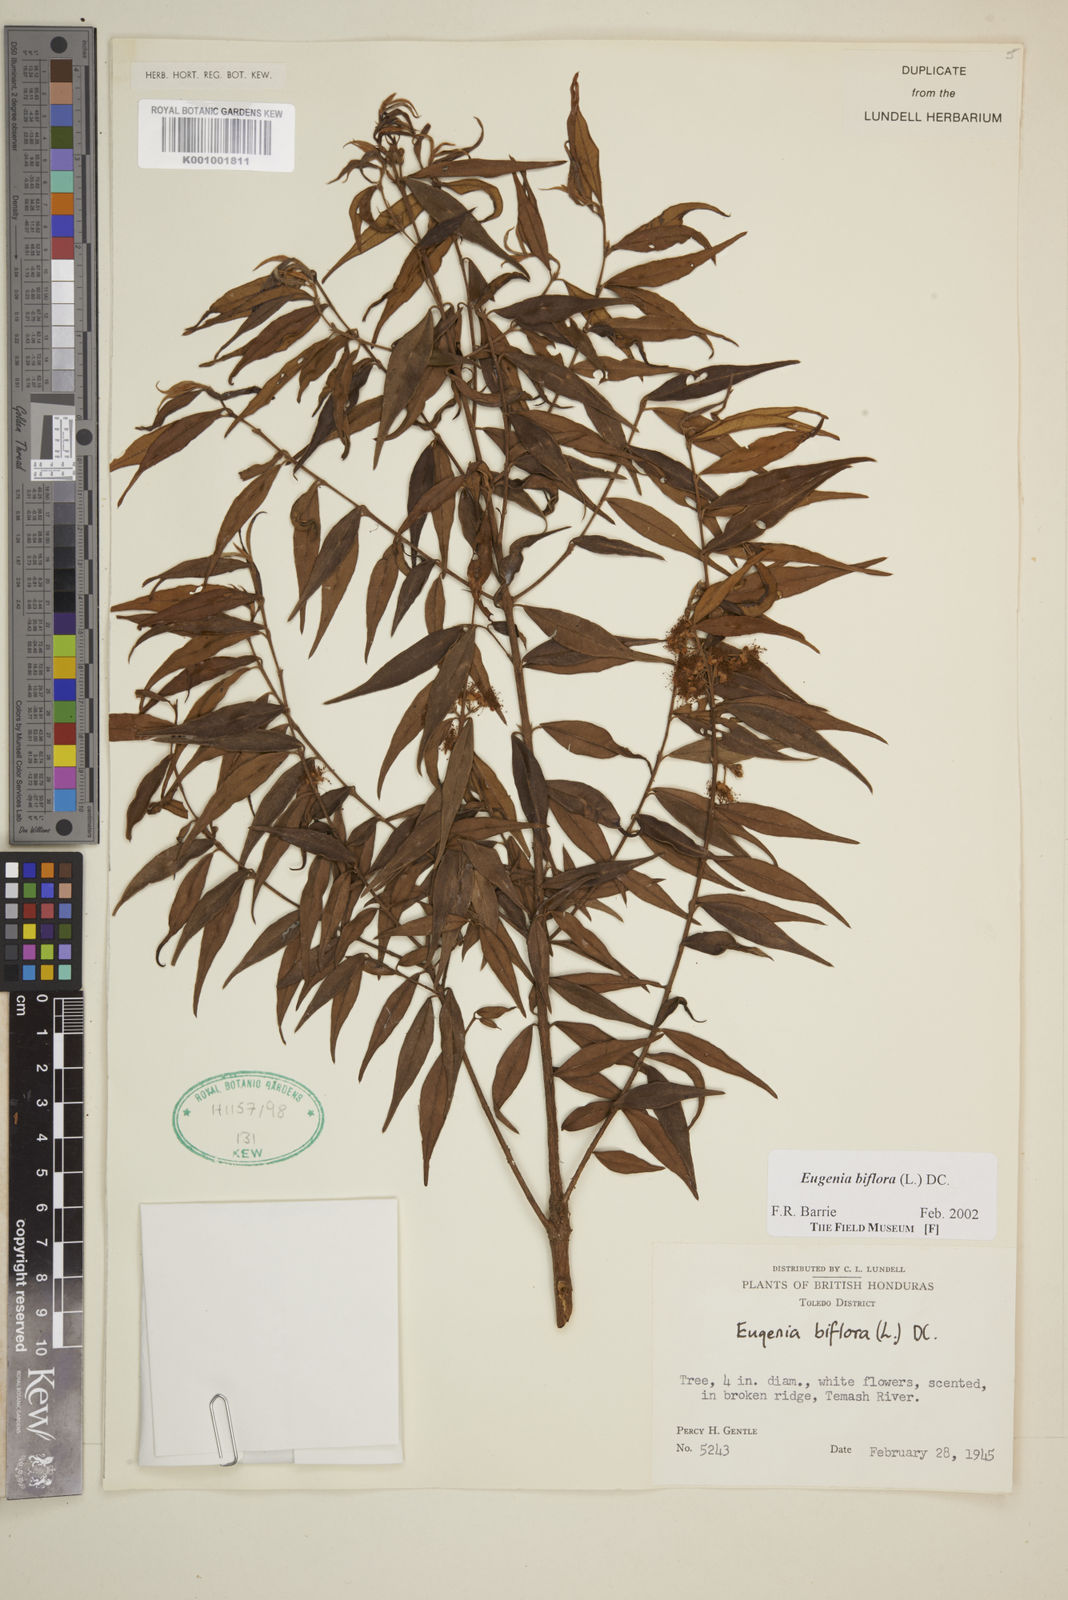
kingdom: Plantae
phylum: Tracheophyta
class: Magnoliopsida
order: Myrtales
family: Myrtaceae
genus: Eugenia
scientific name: Eugenia biflora
